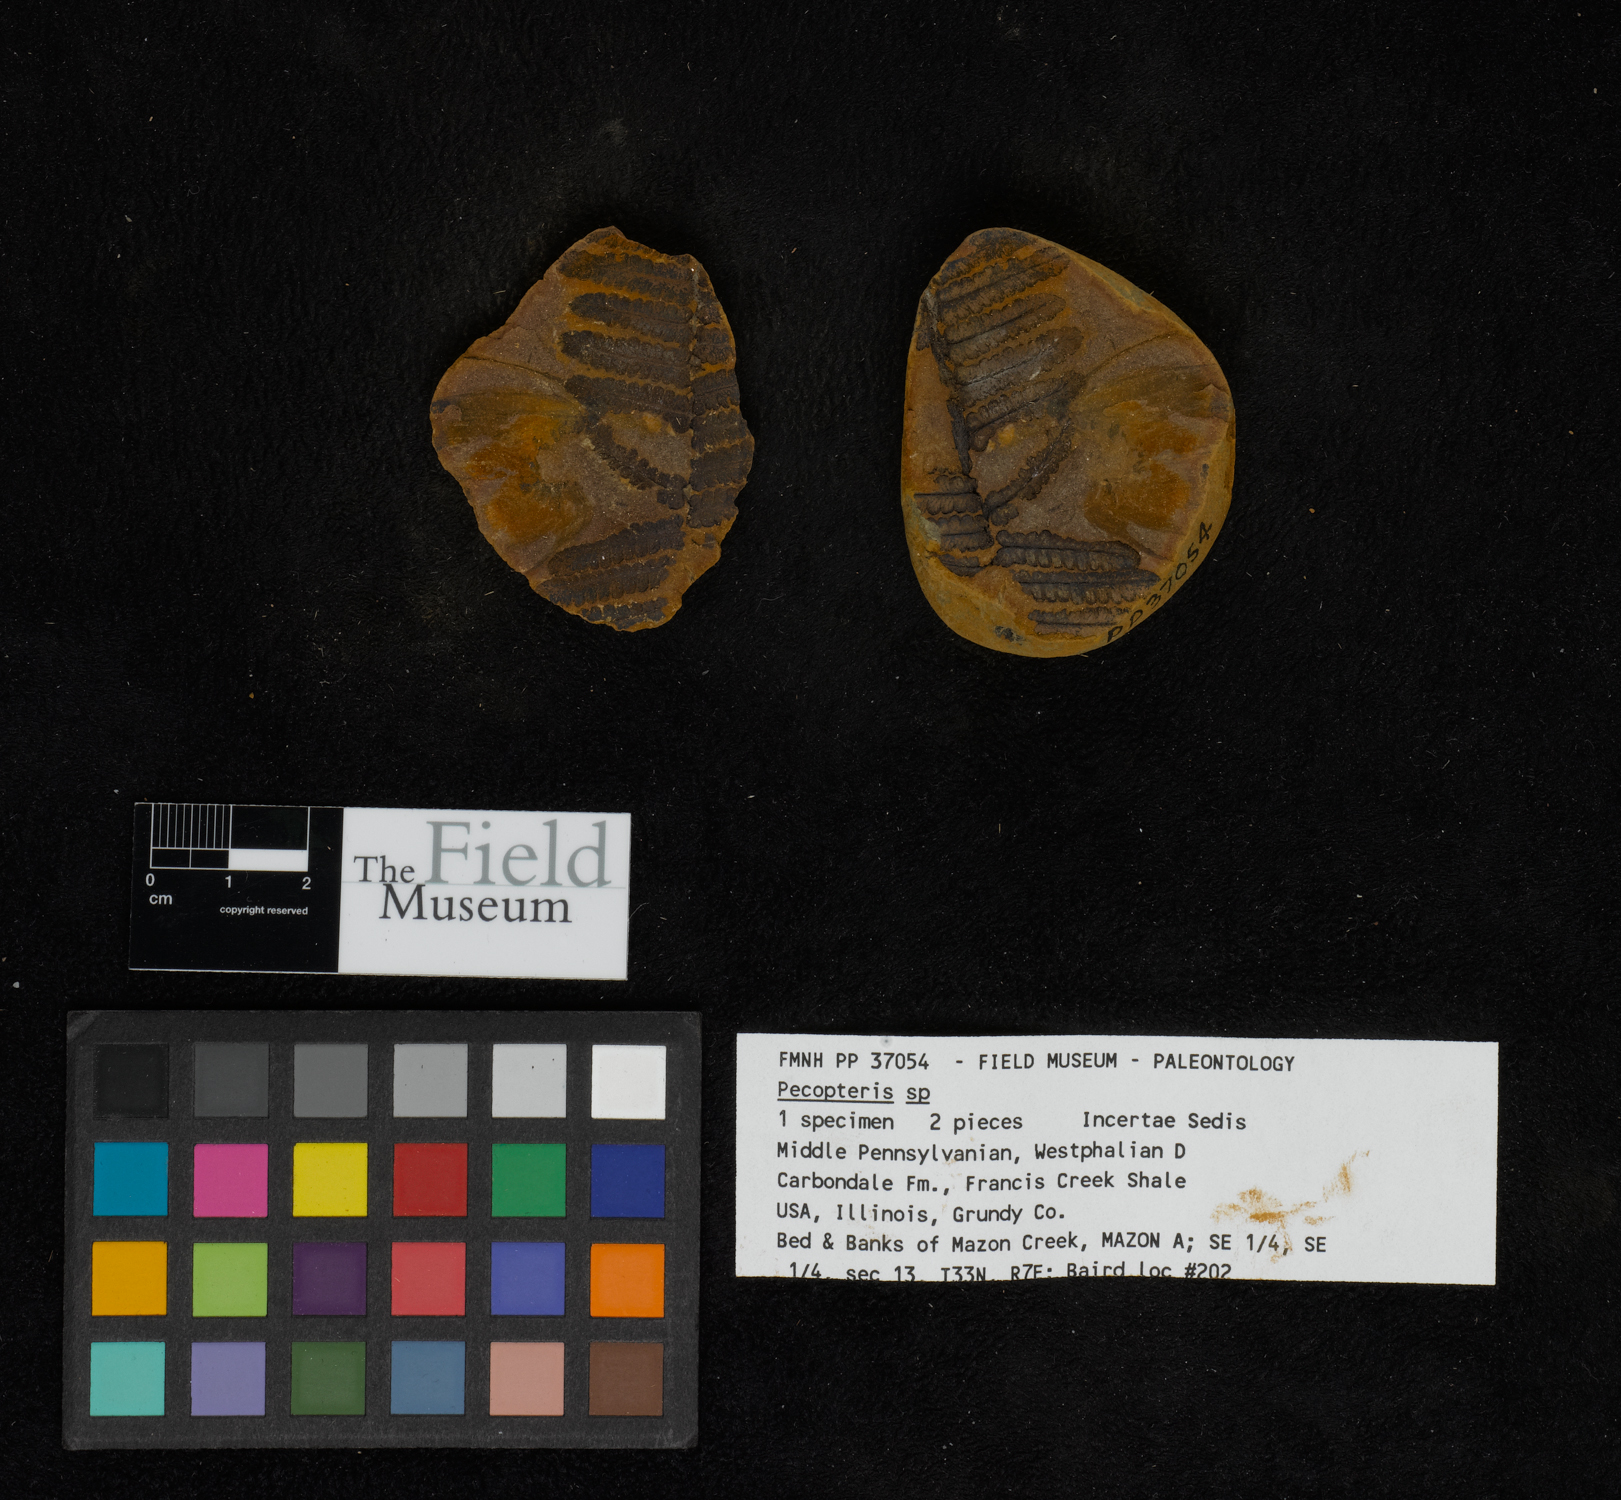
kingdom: Plantae
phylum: Tracheophyta
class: Polypodiopsida
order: Marattiales
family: Asterothecaceae
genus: Pecopteris
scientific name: Pecopteris
